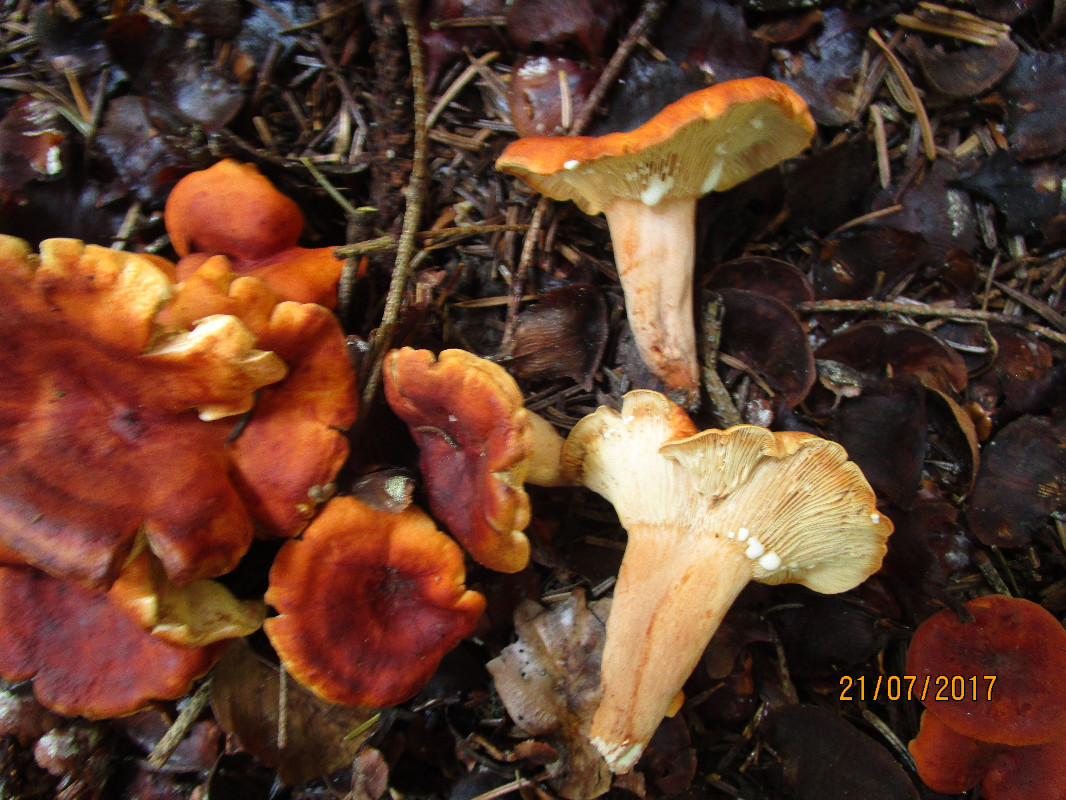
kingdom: Fungi
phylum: Basidiomycota
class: Agaricomycetes
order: Russulales
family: Russulaceae
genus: Lactarius
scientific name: Lactarius fulvissimus
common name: ræve-mælkehat
